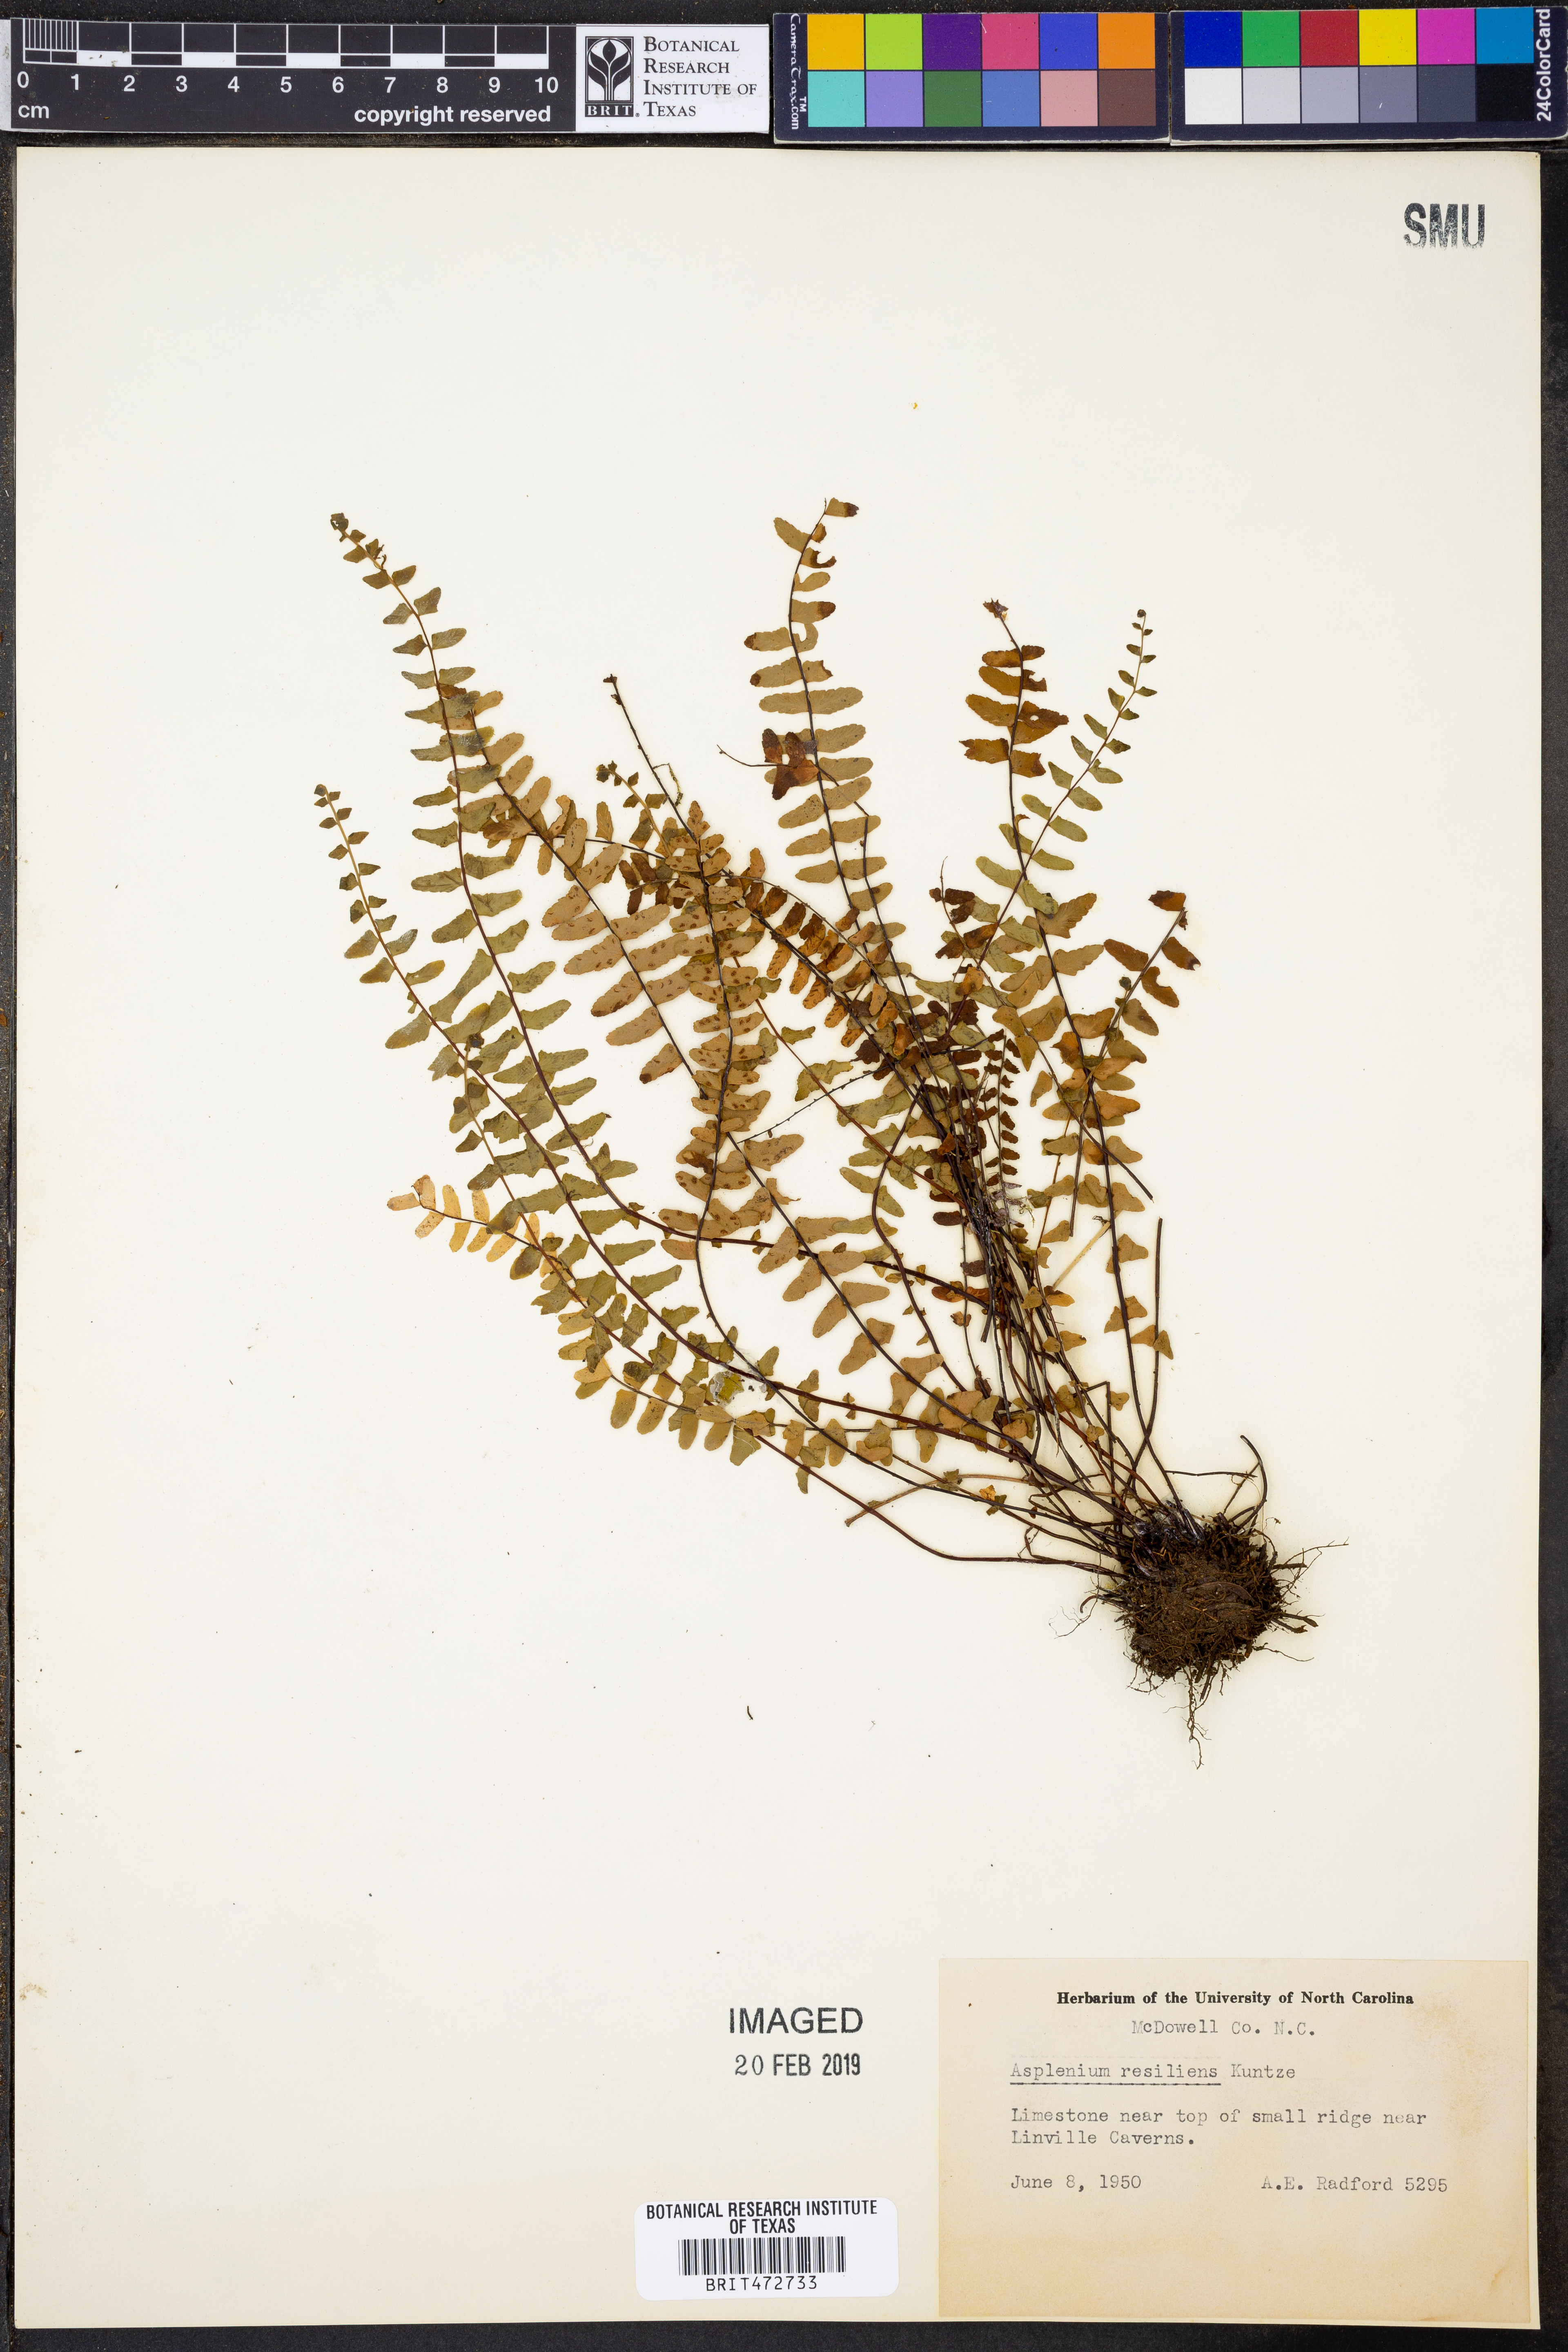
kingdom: Plantae
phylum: Tracheophyta
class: Polypodiopsida
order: Polypodiales
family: Aspleniaceae
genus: Asplenium
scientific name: Asplenium resiliens
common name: Blackstem spleenwort
